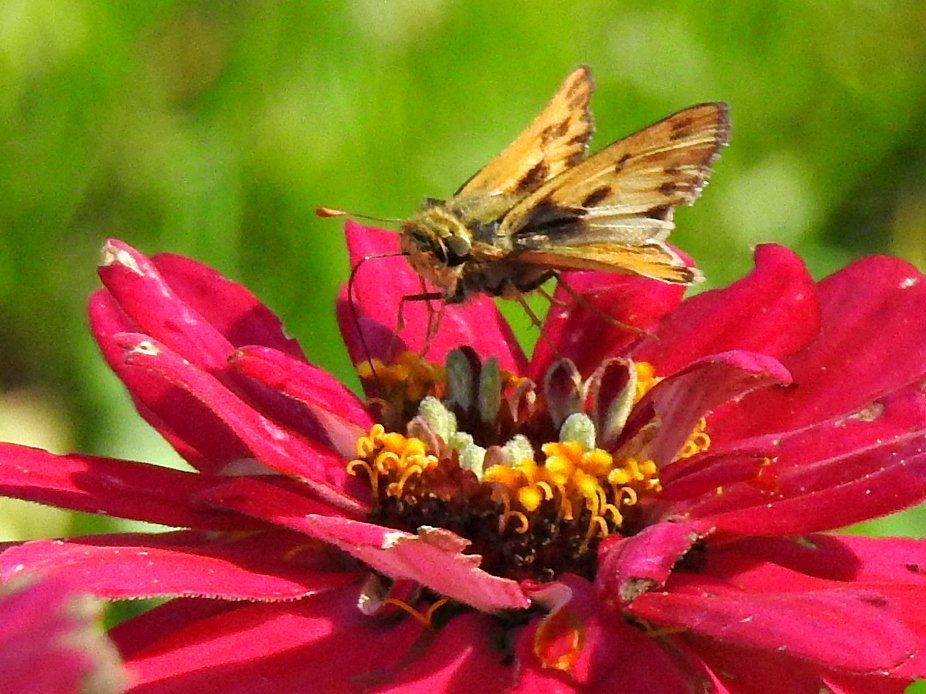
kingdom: Animalia
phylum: Arthropoda
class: Insecta
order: Lepidoptera
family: Hesperiidae
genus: Hylephila
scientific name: Hylephila phyleus
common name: Fiery Skipper
